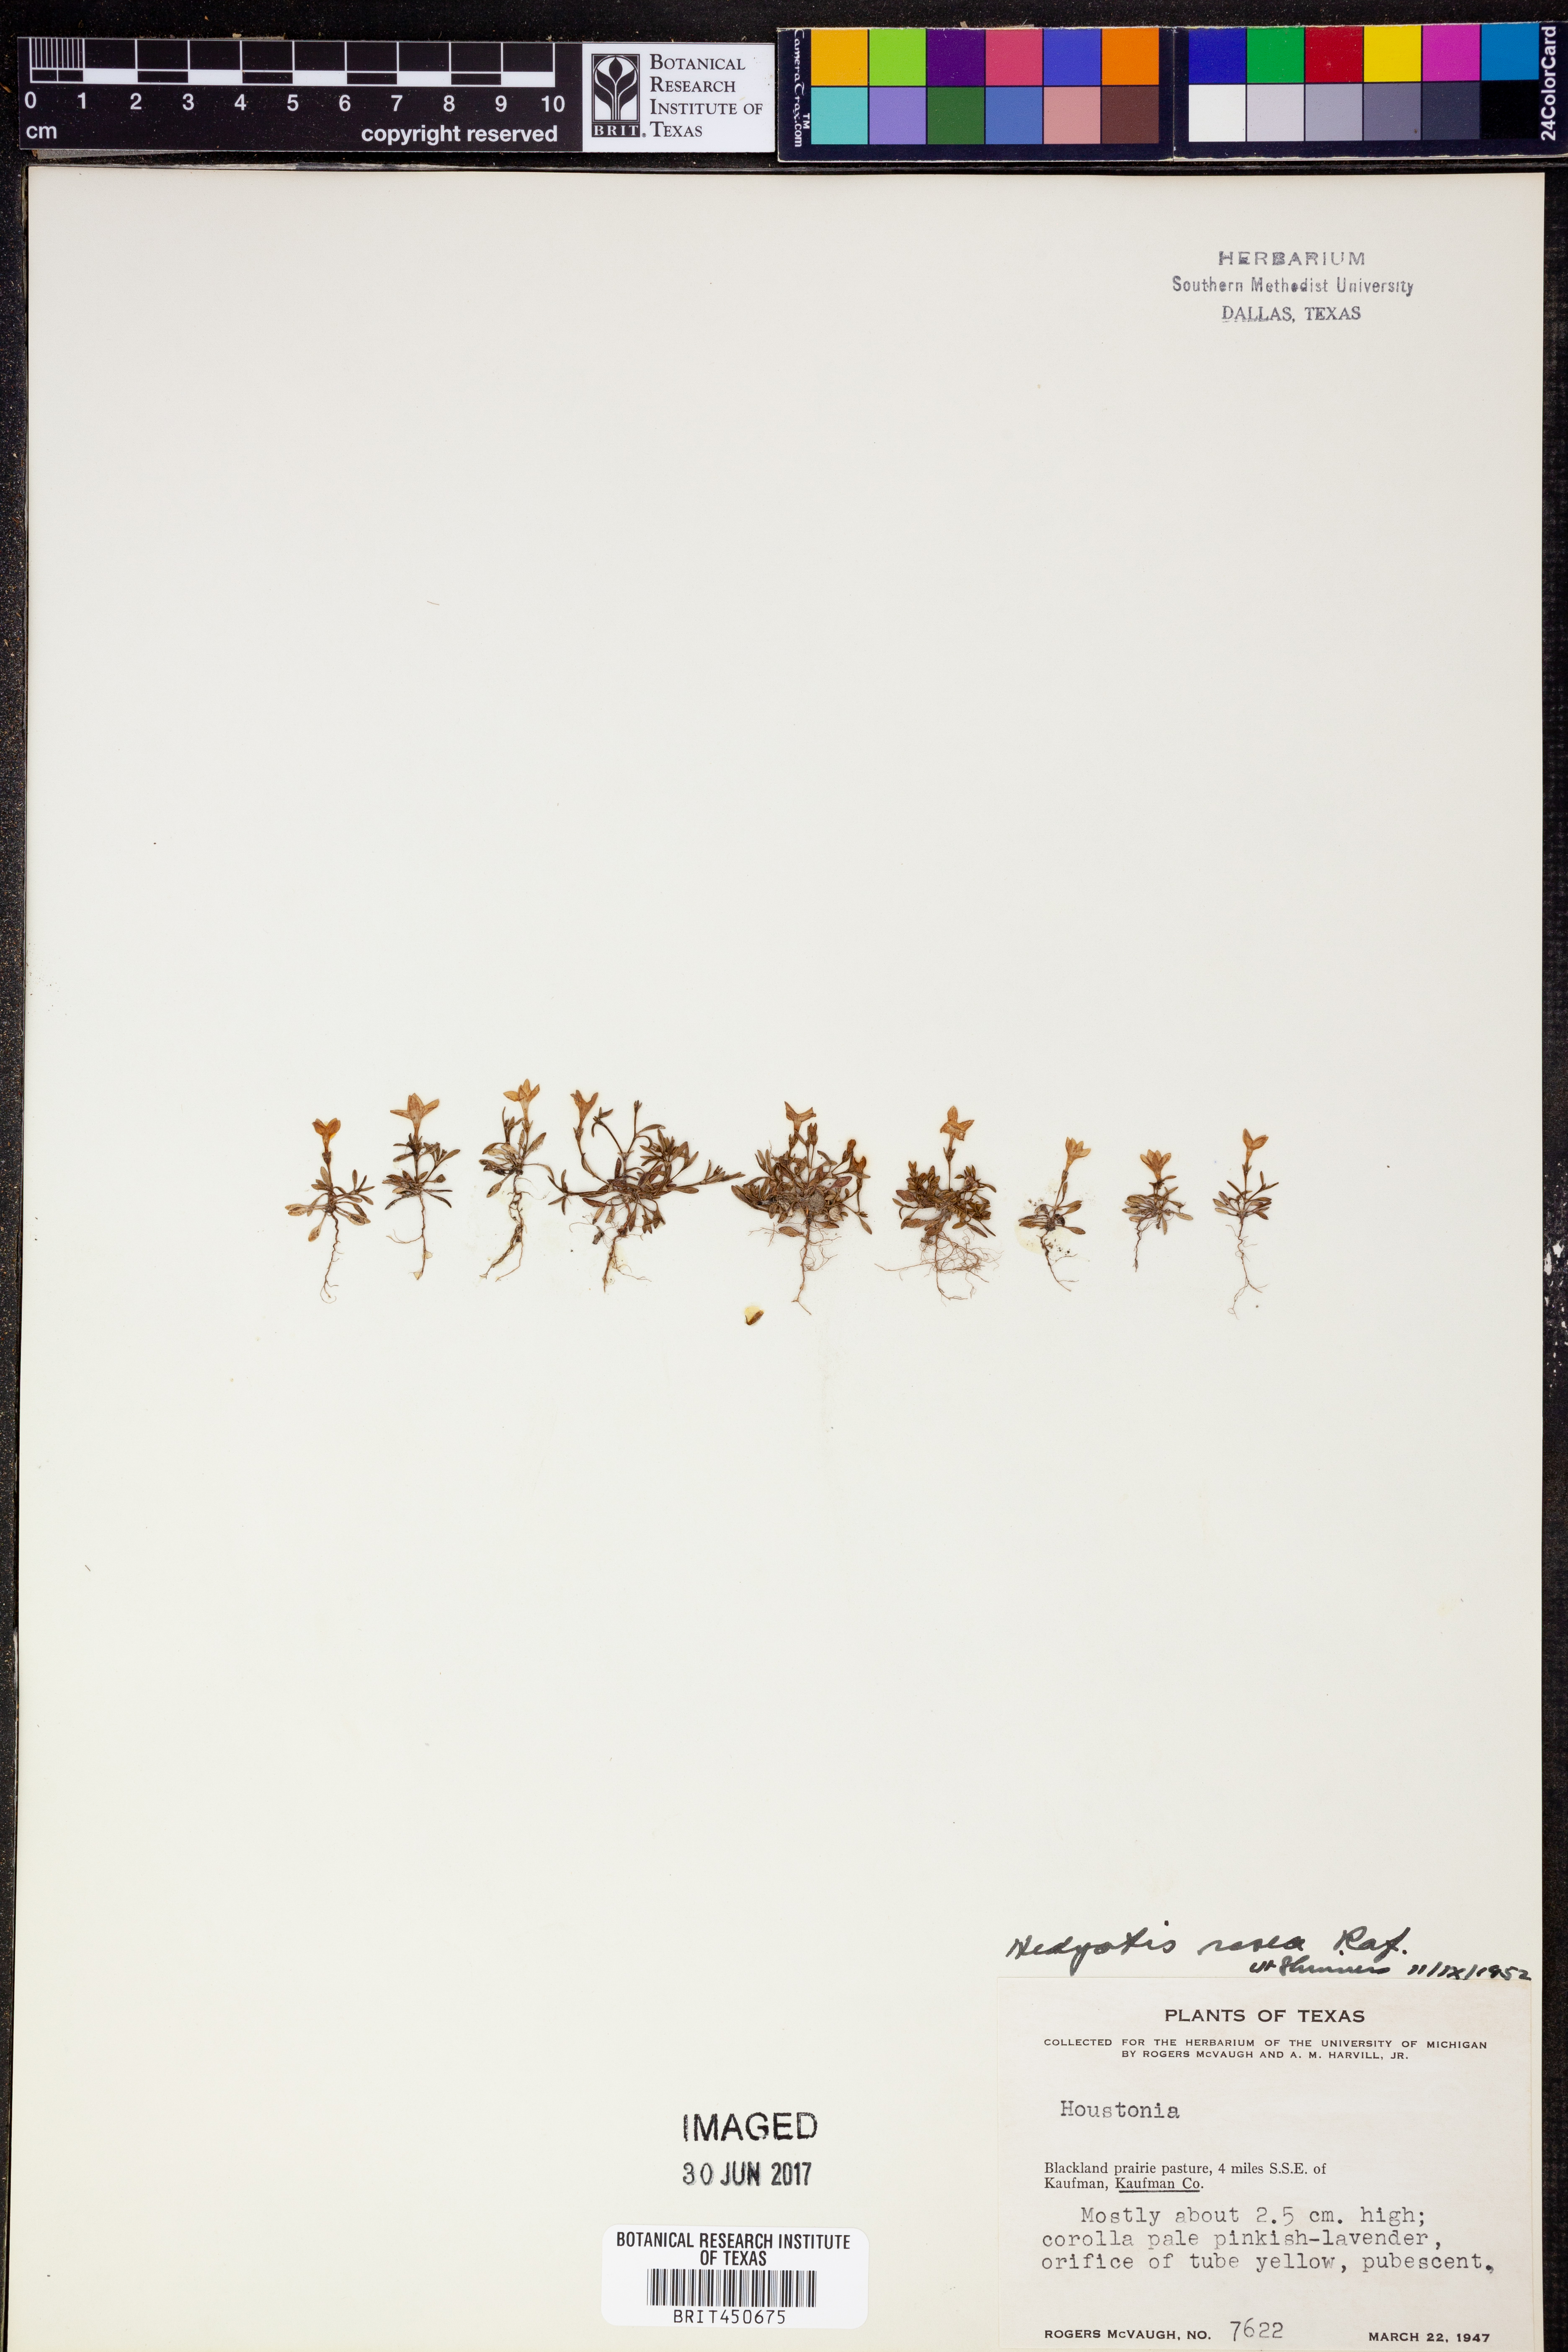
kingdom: Plantae
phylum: Tracheophyta
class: Magnoliopsida
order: Gentianales
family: Rubiaceae
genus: Houstonia
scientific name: Houstonia rosea
